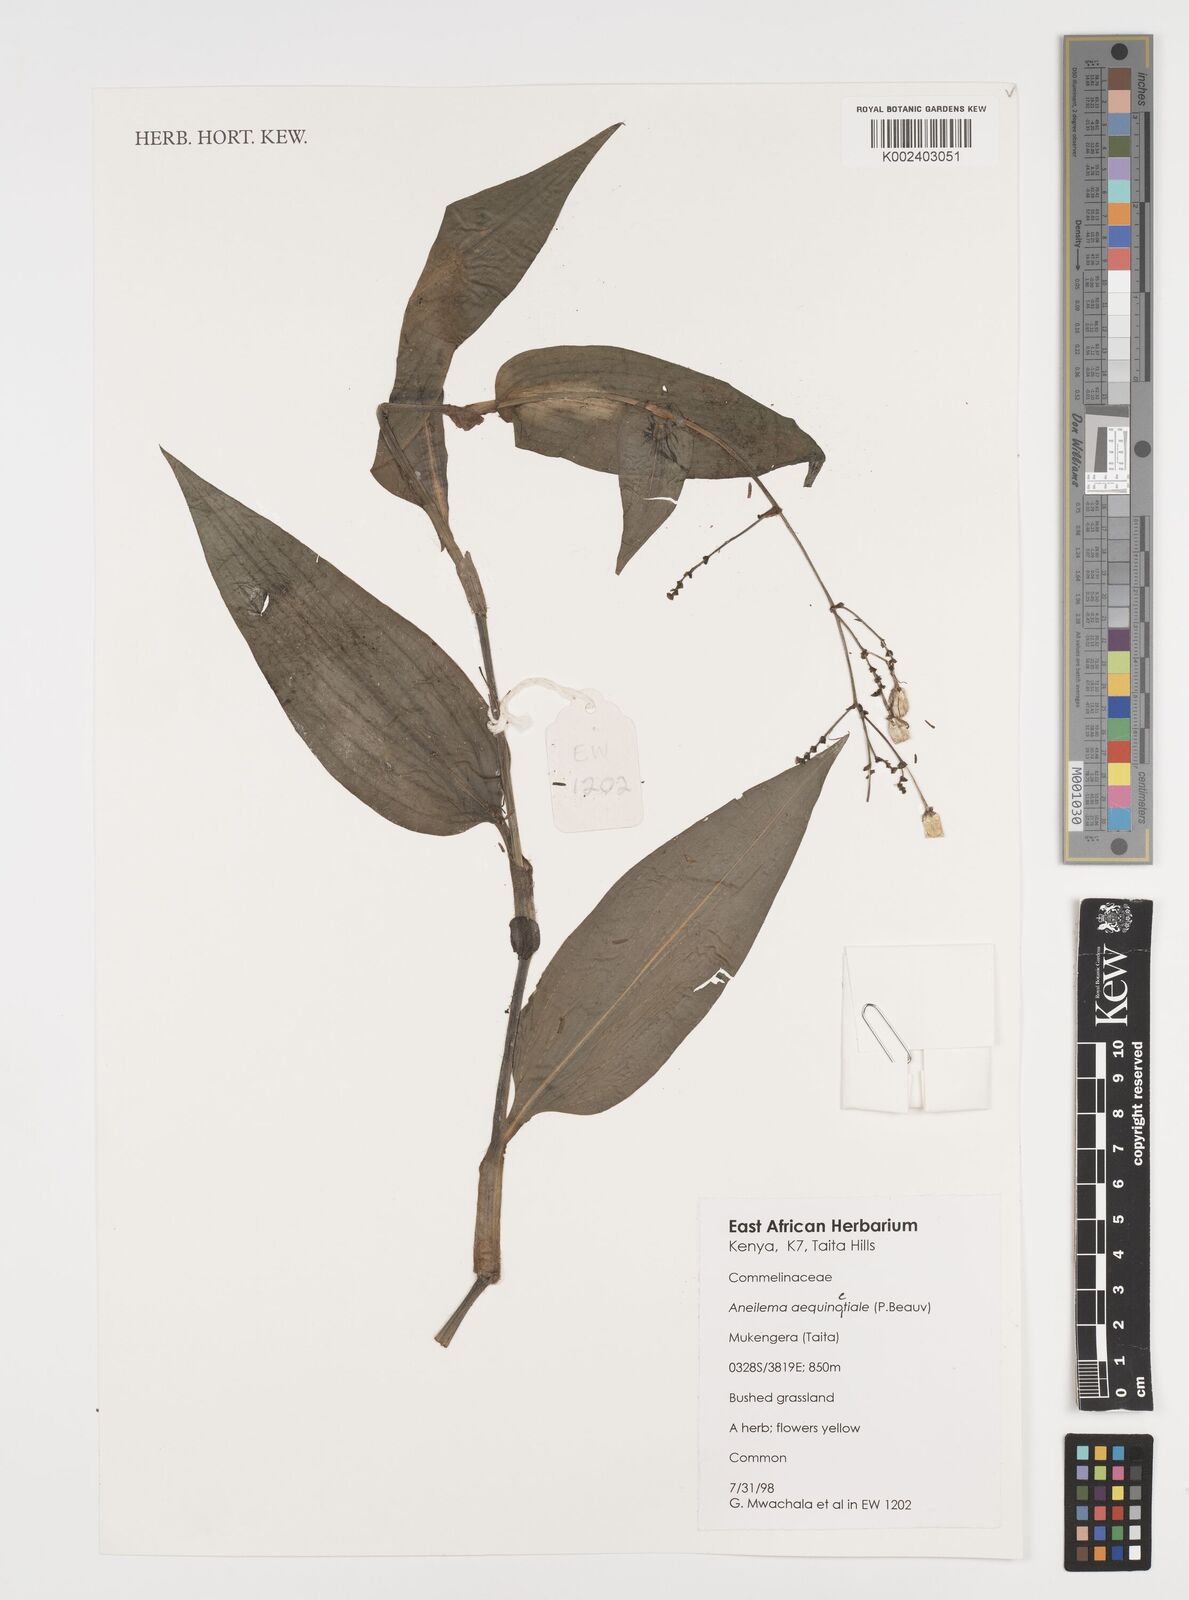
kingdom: Plantae
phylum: Tracheophyta
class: Liliopsida
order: Commelinales
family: Commelinaceae
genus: Aneilema
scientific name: Aneilema aequinoctiale
